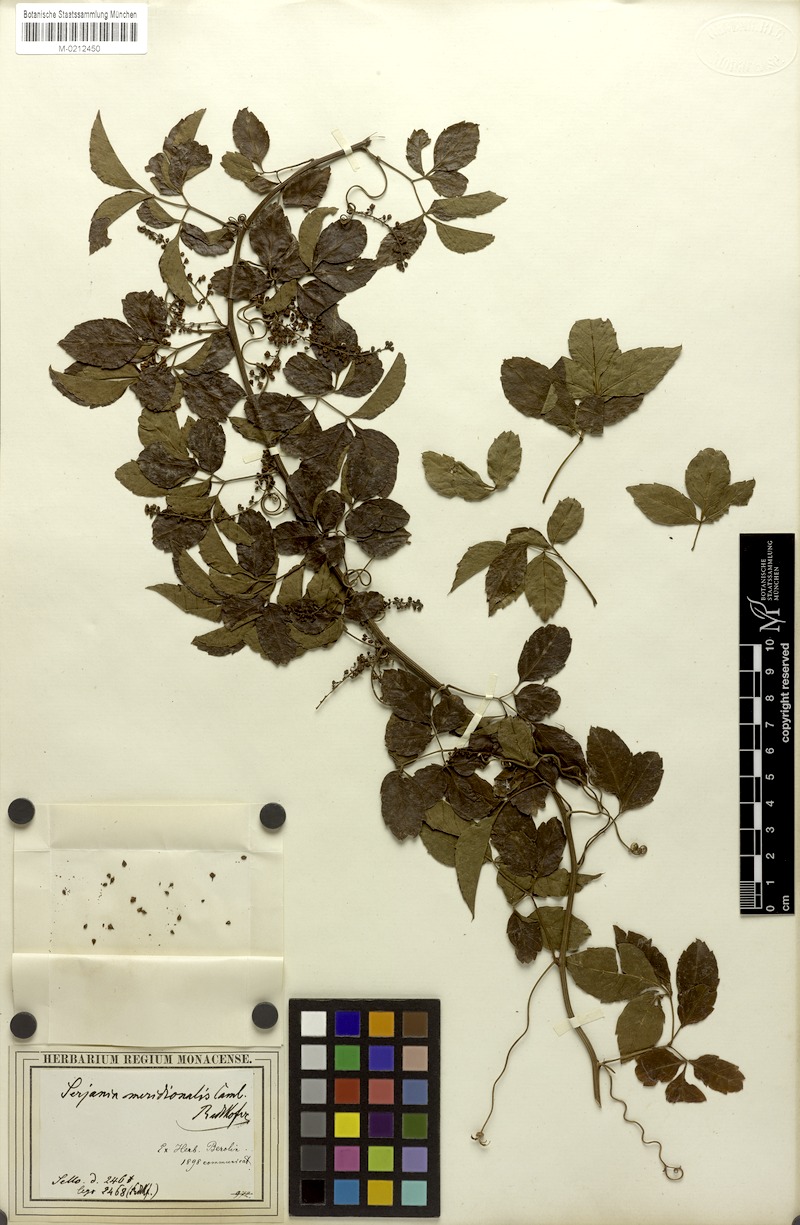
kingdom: Plantae
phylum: Tracheophyta
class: Magnoliopsida
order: Sapindales
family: Sapindaceae
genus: Serjania
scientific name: Serjania meridionalis
